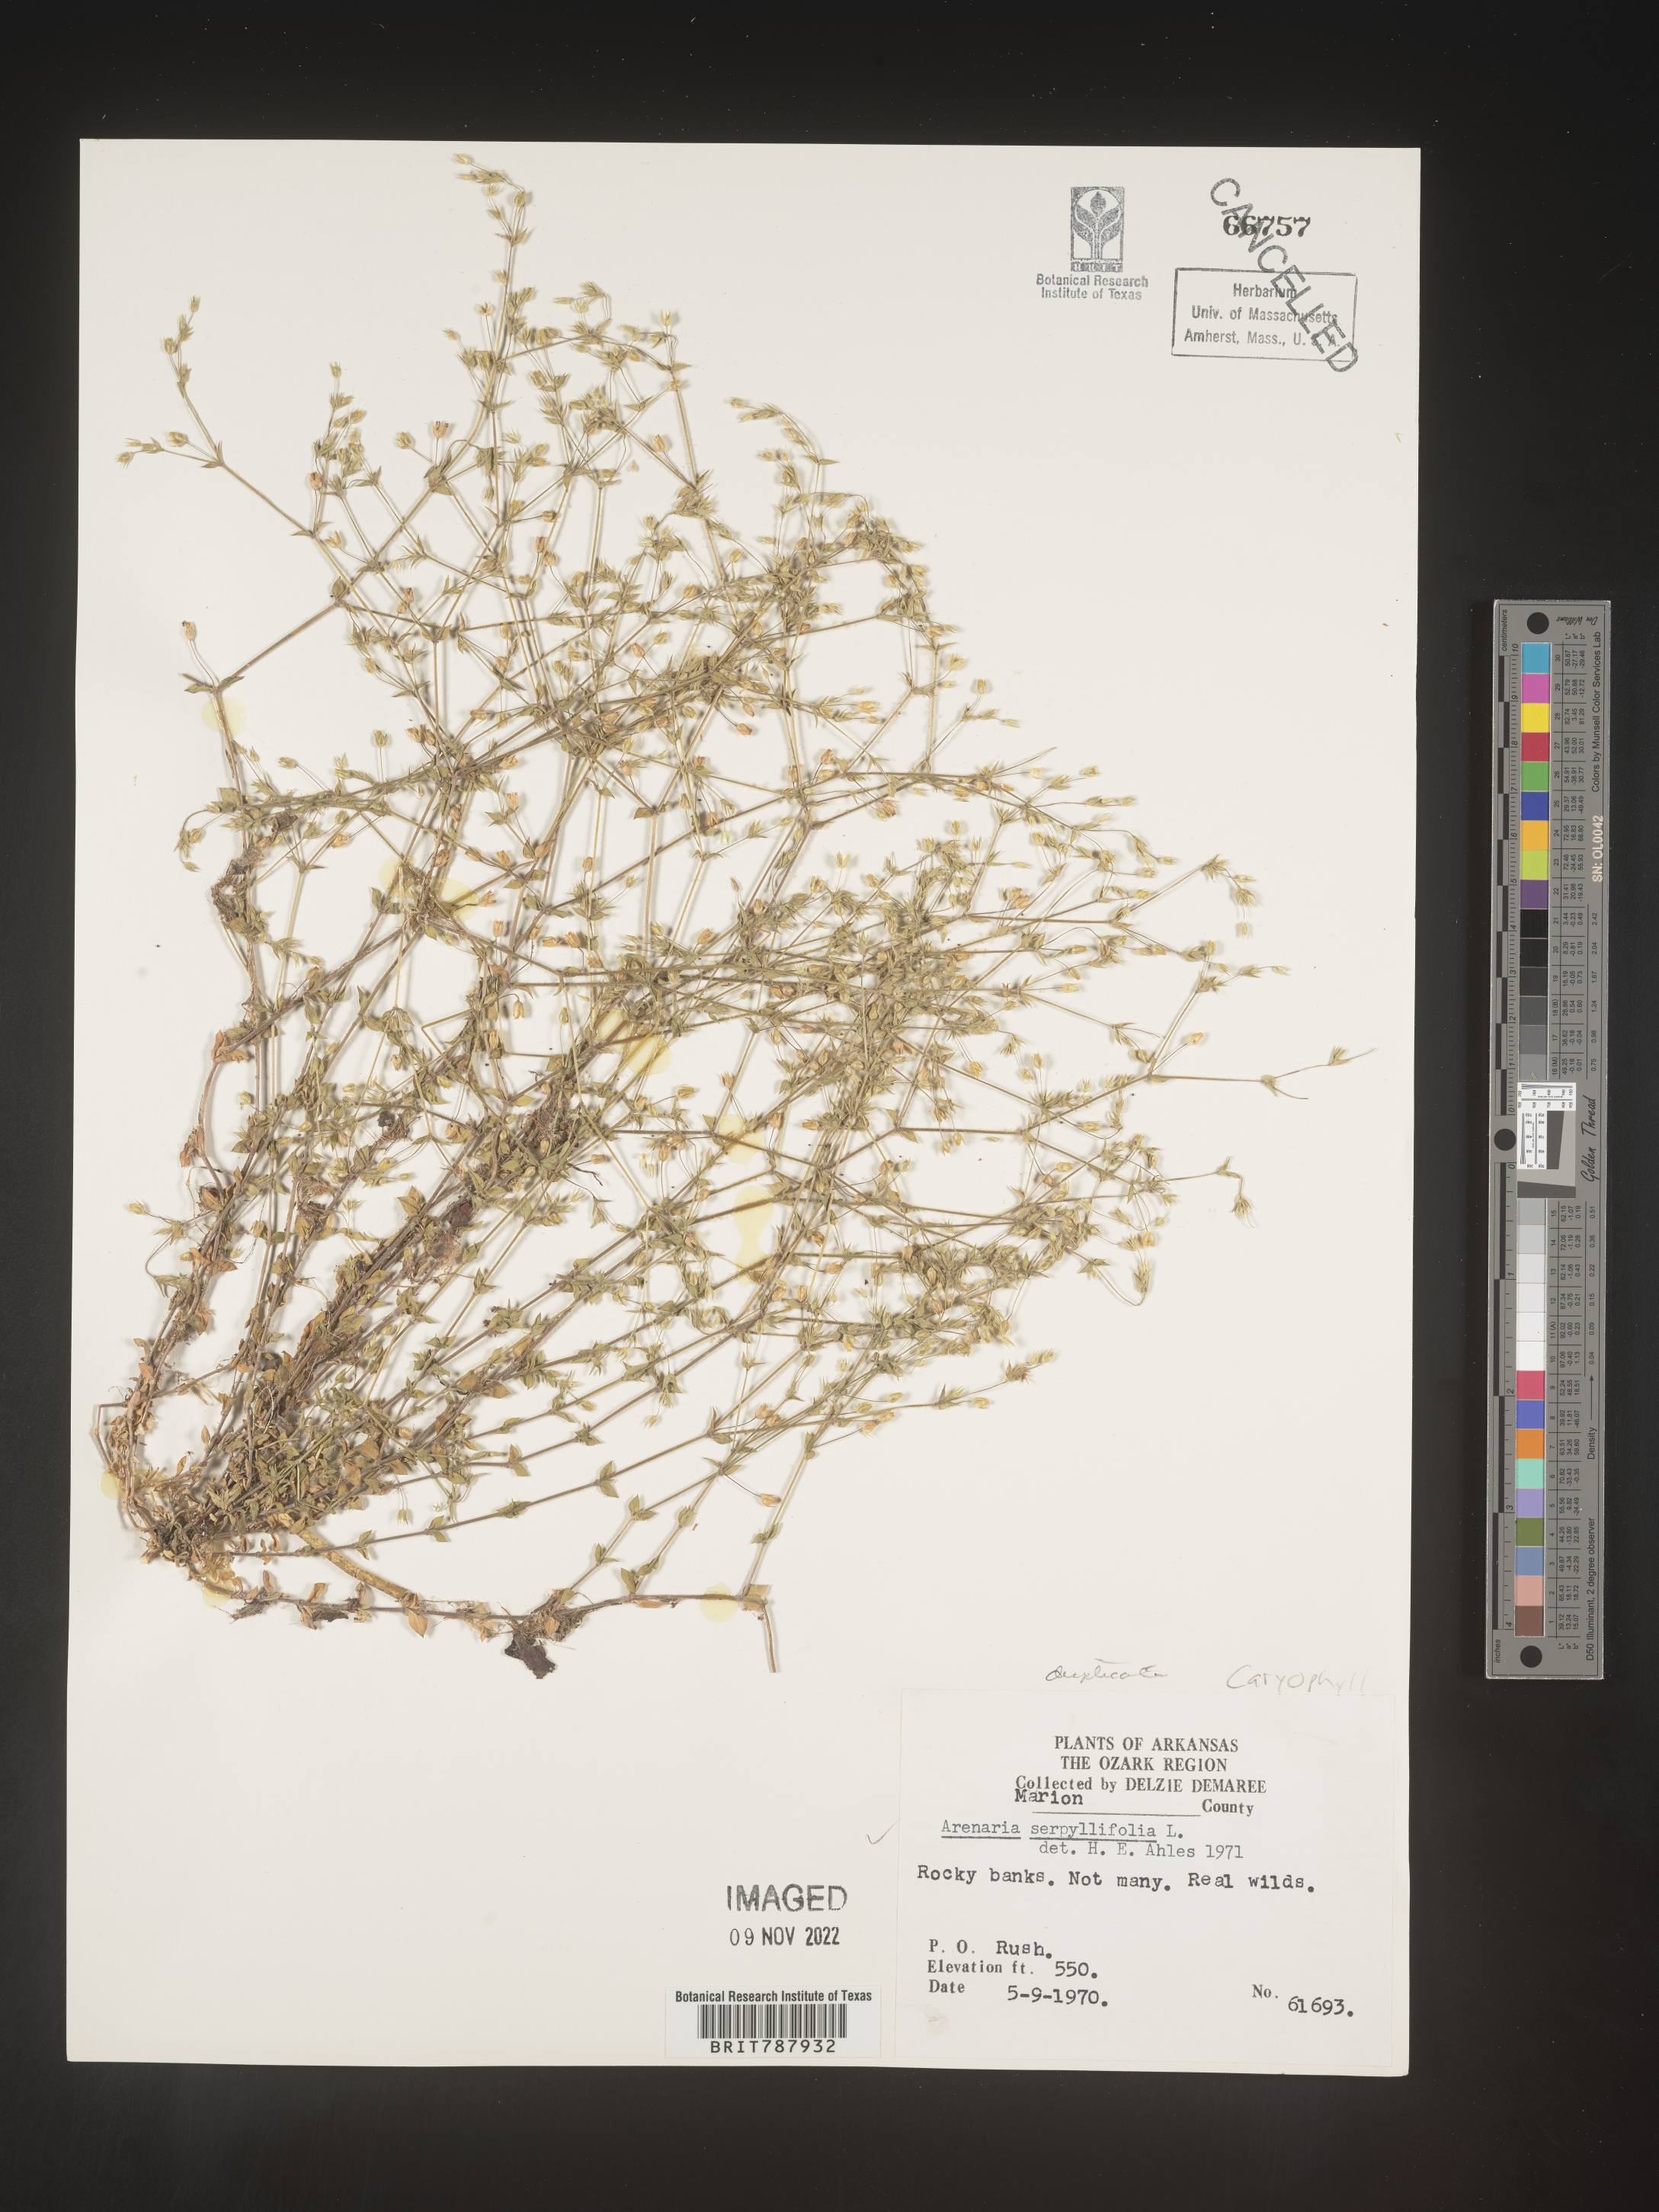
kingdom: Plantae
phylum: Tracheophyta
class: Magnoliopsida
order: Caryophyllales
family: Caryophyllaceae
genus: Arenaria
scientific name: Arenaria serpyllifolia
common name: Thyme-leaved sandwort
